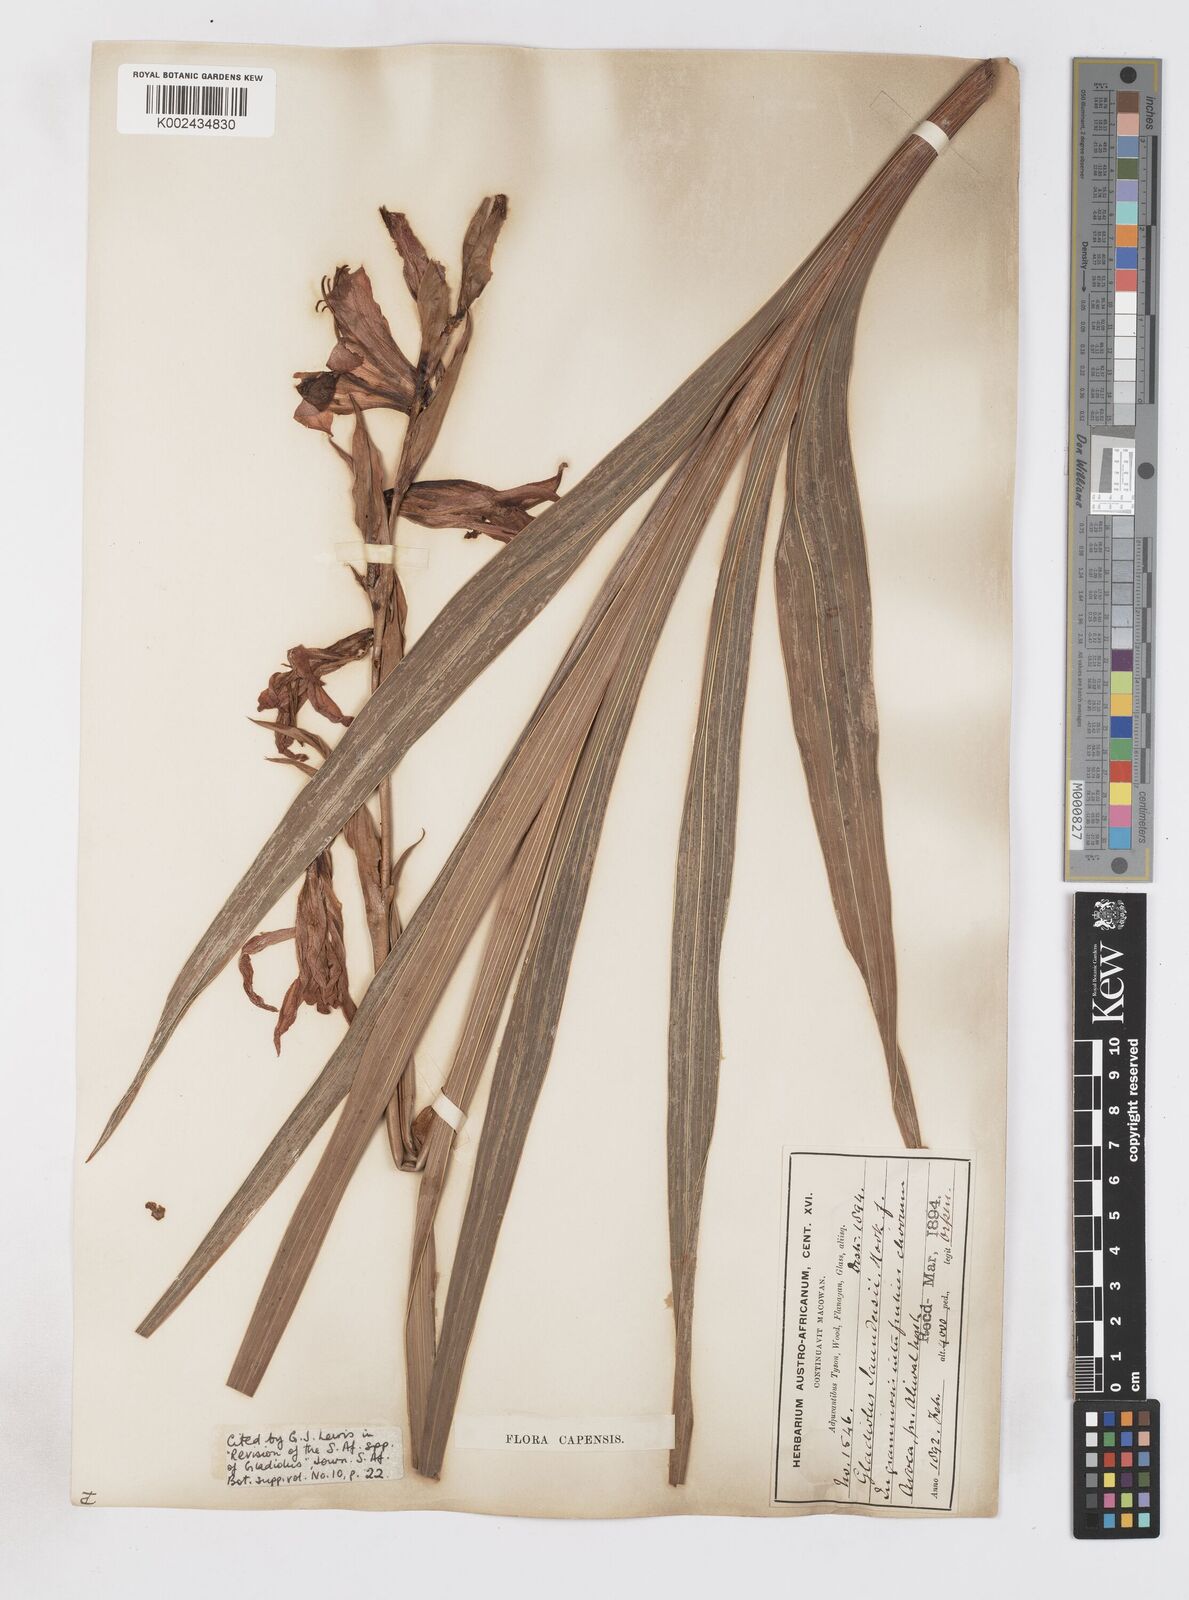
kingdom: Plantae
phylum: Tracheophyta
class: Liliopsida
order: Asparagales
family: Iridaceae
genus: Gladiolus
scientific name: Gladiolus saundersii
